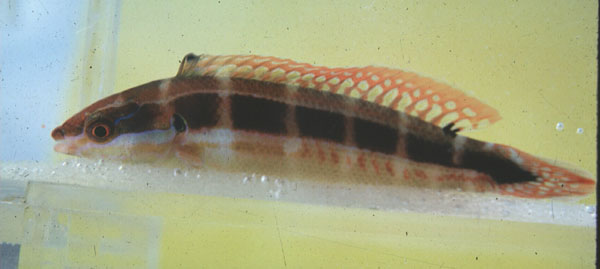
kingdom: Animalia
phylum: Chordata
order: Perciformes
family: Labridae
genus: Coris
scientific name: Coris caudimacula
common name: Spottail coris
